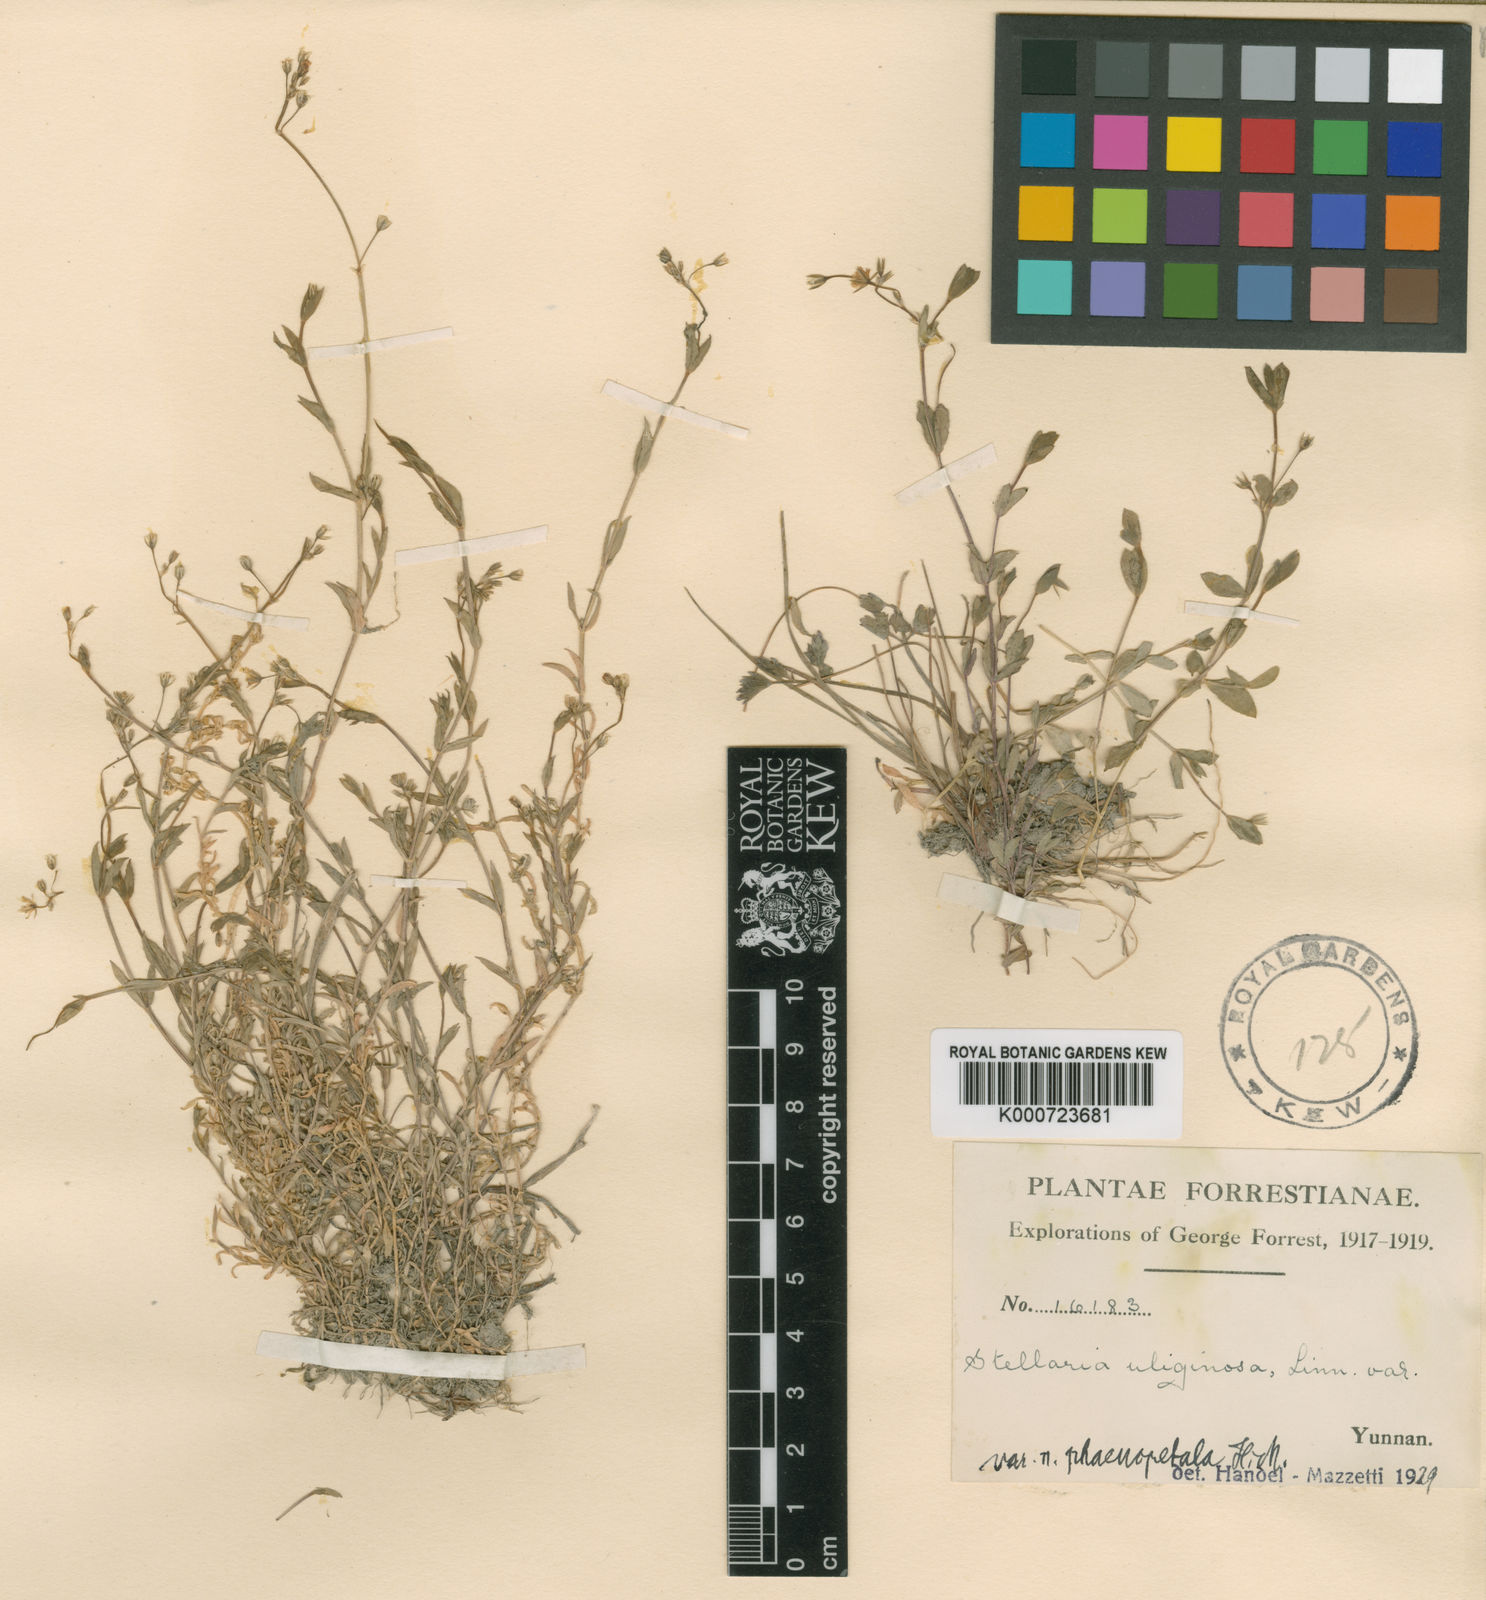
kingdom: Plantae
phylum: Tracheophyta
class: Magnoliopsida
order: Caryophyllales
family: Caryophyllaceae
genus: Stellaria
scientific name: Stellaria alsine
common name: Bog stitchwort
